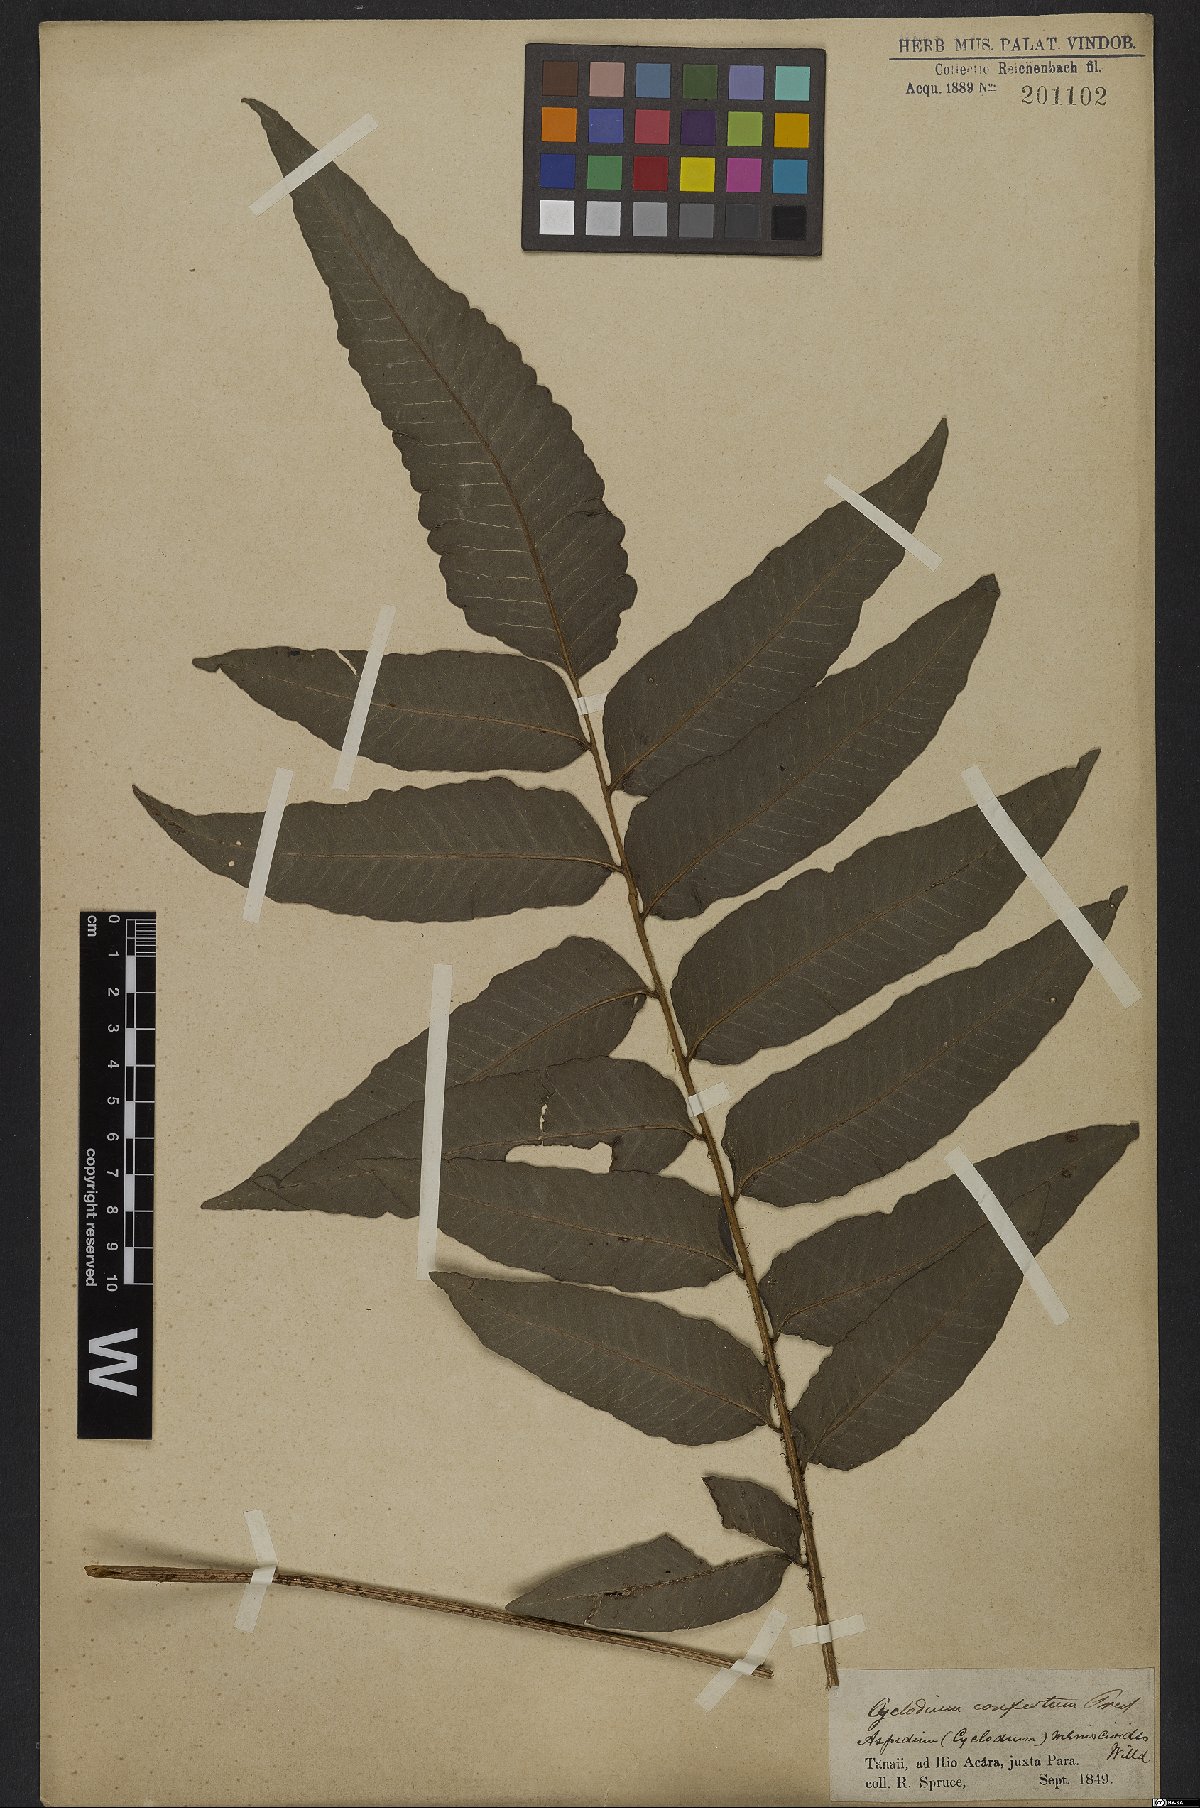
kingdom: Plantae
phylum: Tracheophyta
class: Polypodiopsida
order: Polypodiales
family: Dryopteridaceae
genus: Cyclodium
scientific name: Cyclodium meniscioides
